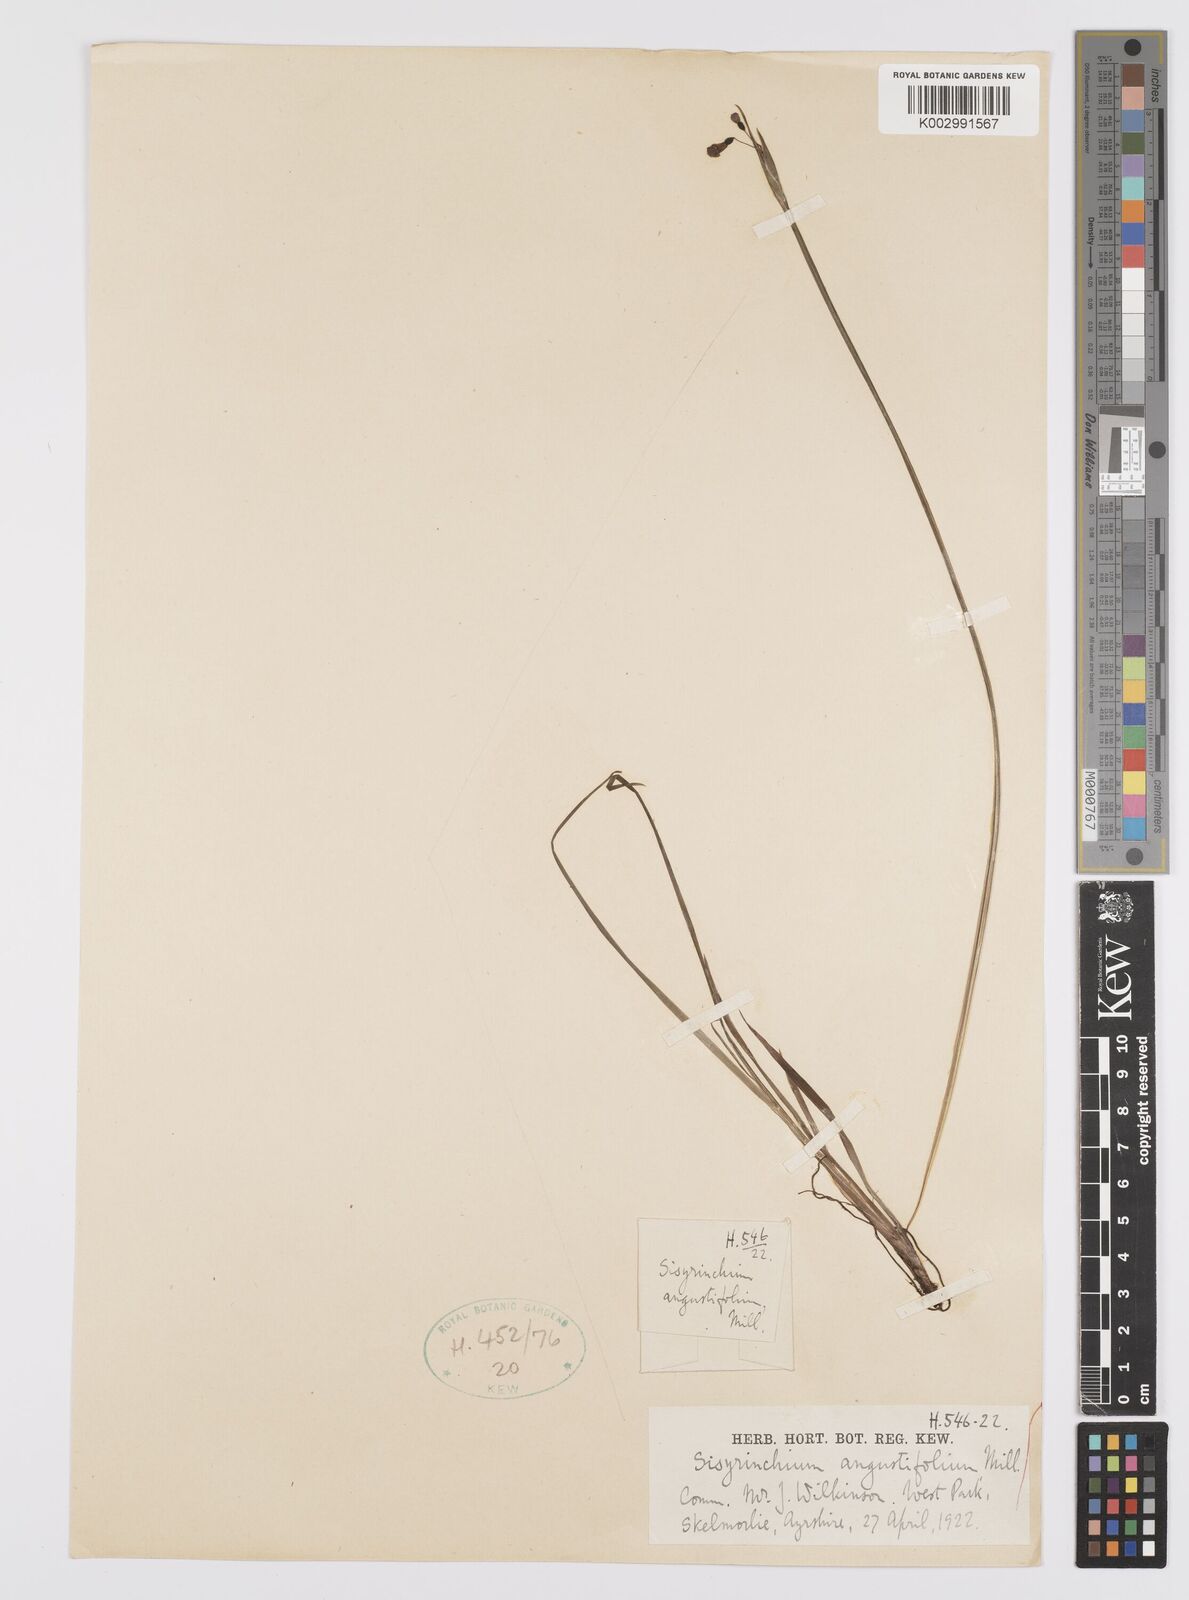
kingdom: Plantae
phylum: Tracheophyta
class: Liliopsida
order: Asparagales
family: Iridaceae
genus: Sisyrinchium
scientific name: Sisyrinchium angustifolium
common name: Narrow-leaf blue-eyed-grass
